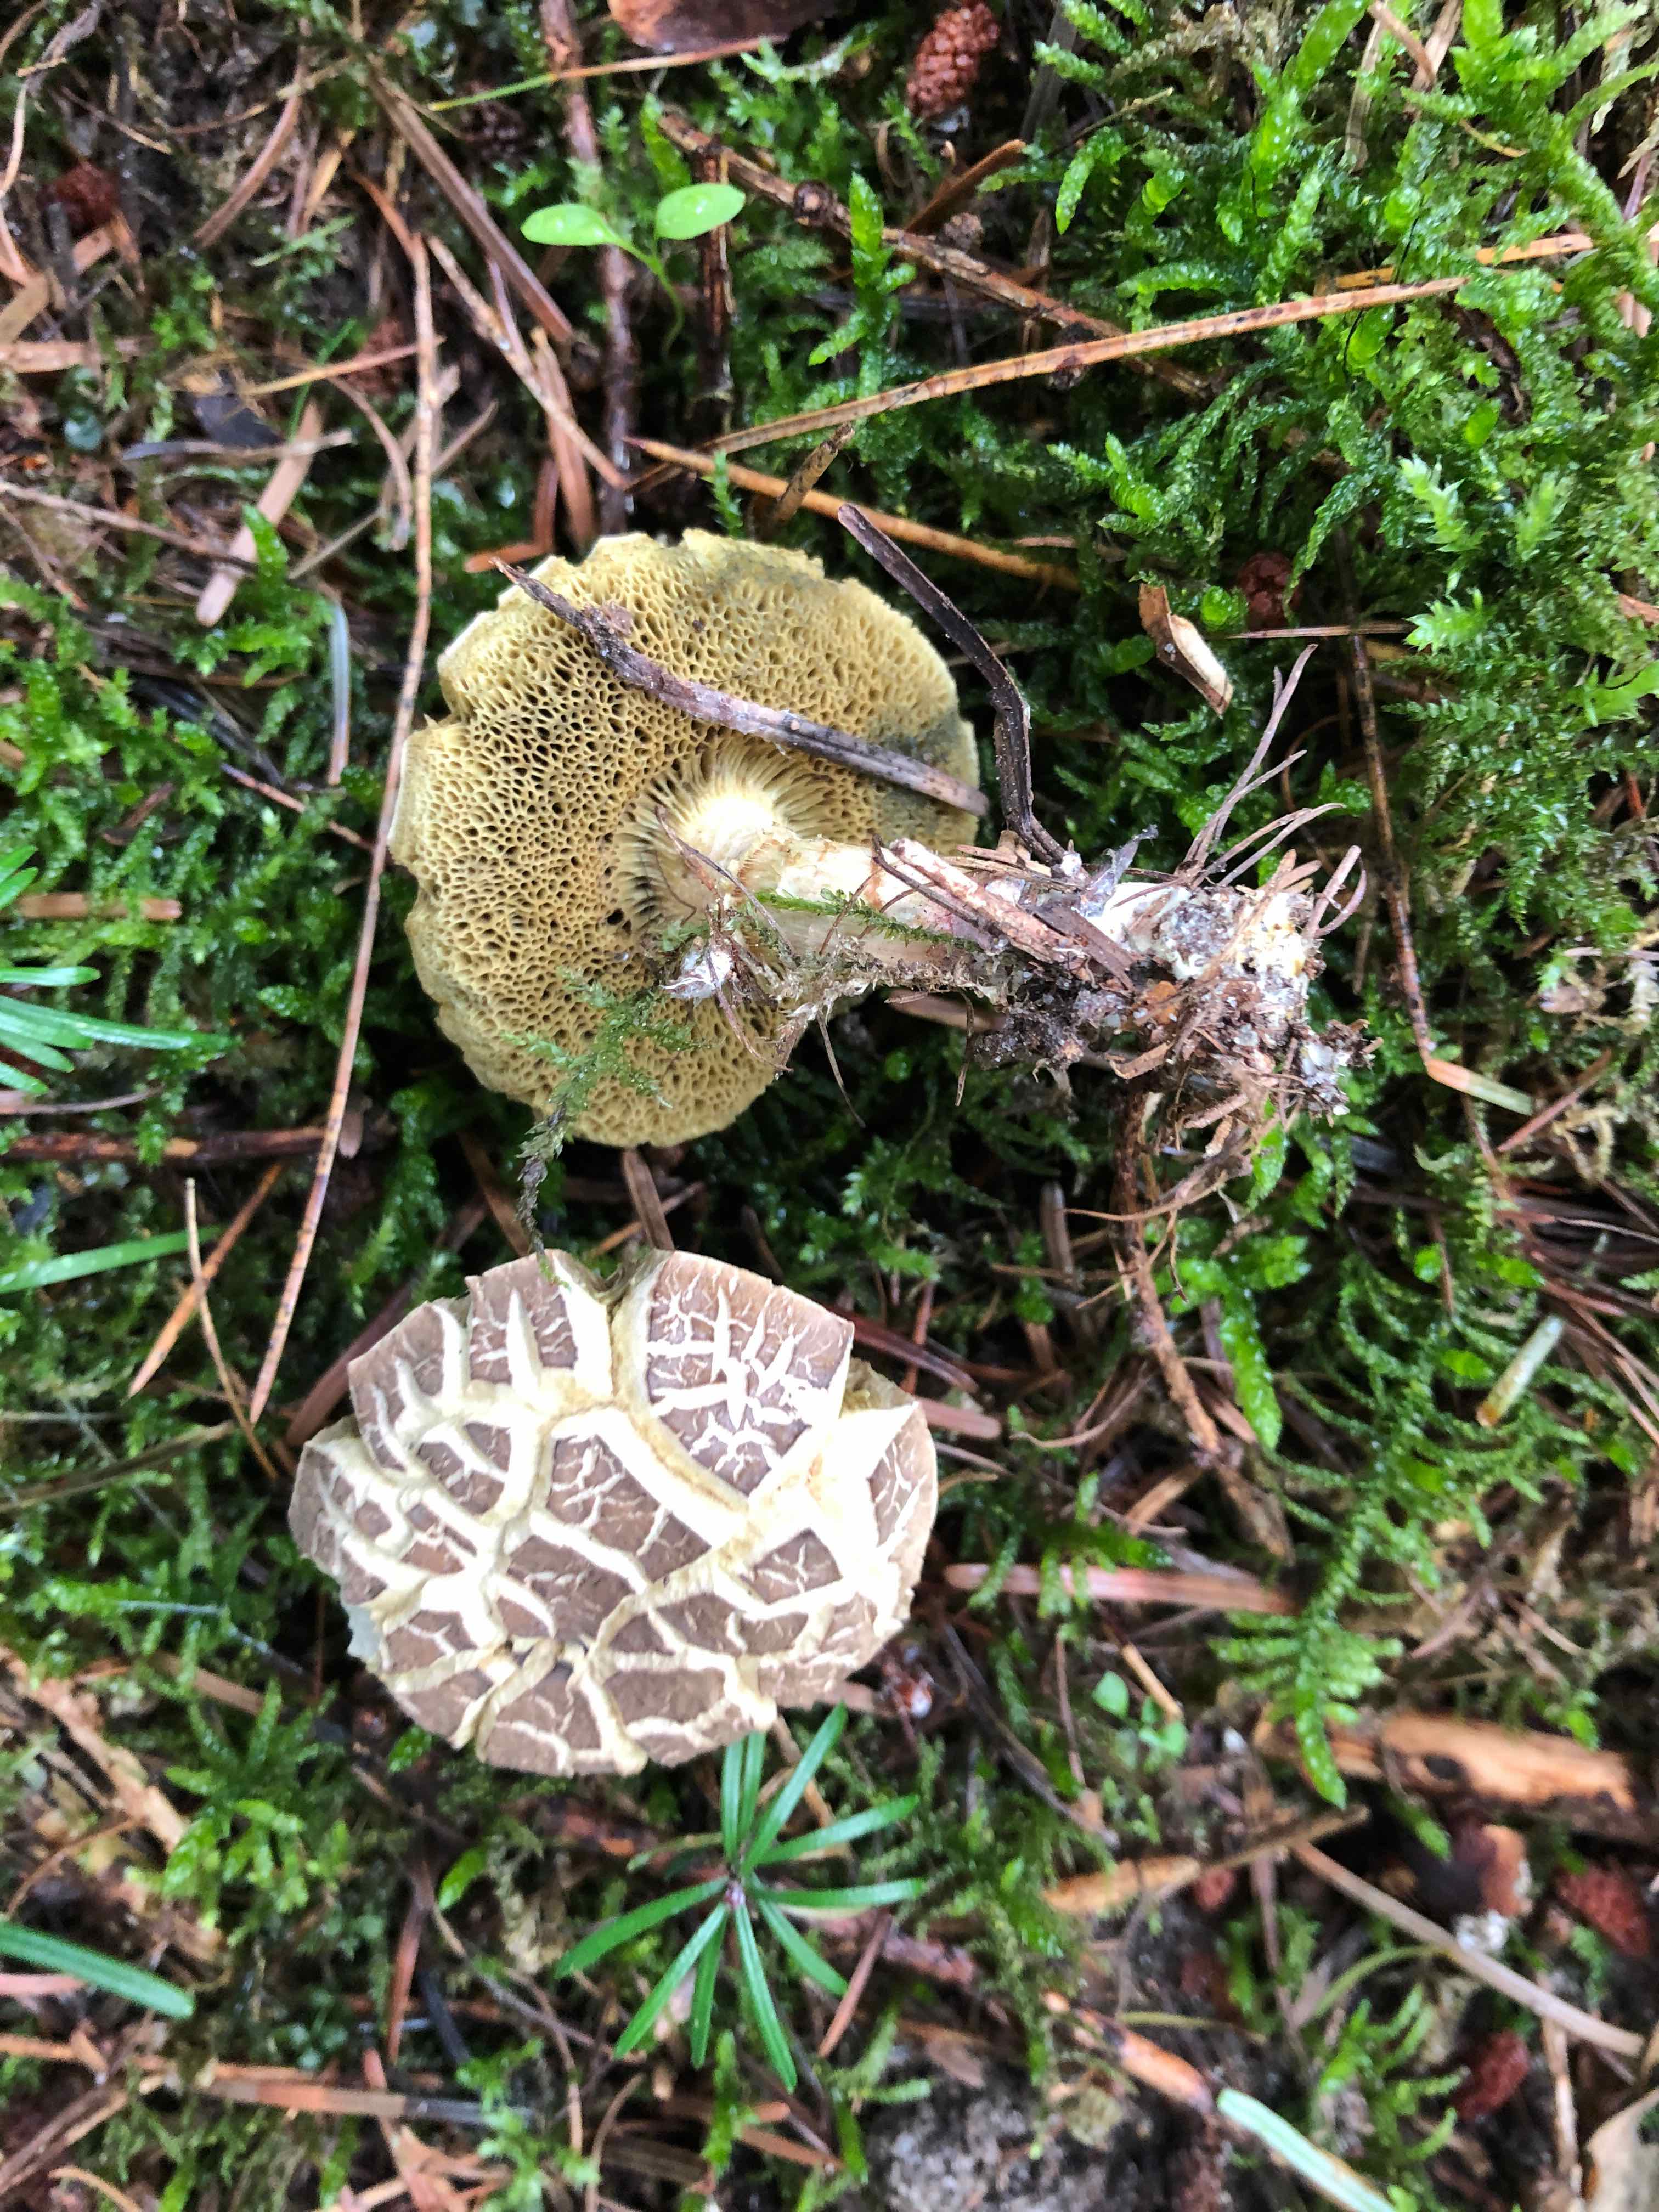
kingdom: Fungi
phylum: Basidiomycota
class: Agaricomycetes
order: Boletales
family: Boletaceae
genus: Xerocomellus
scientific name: Xerocomellus porosporus
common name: hvidsprukken rørhat
